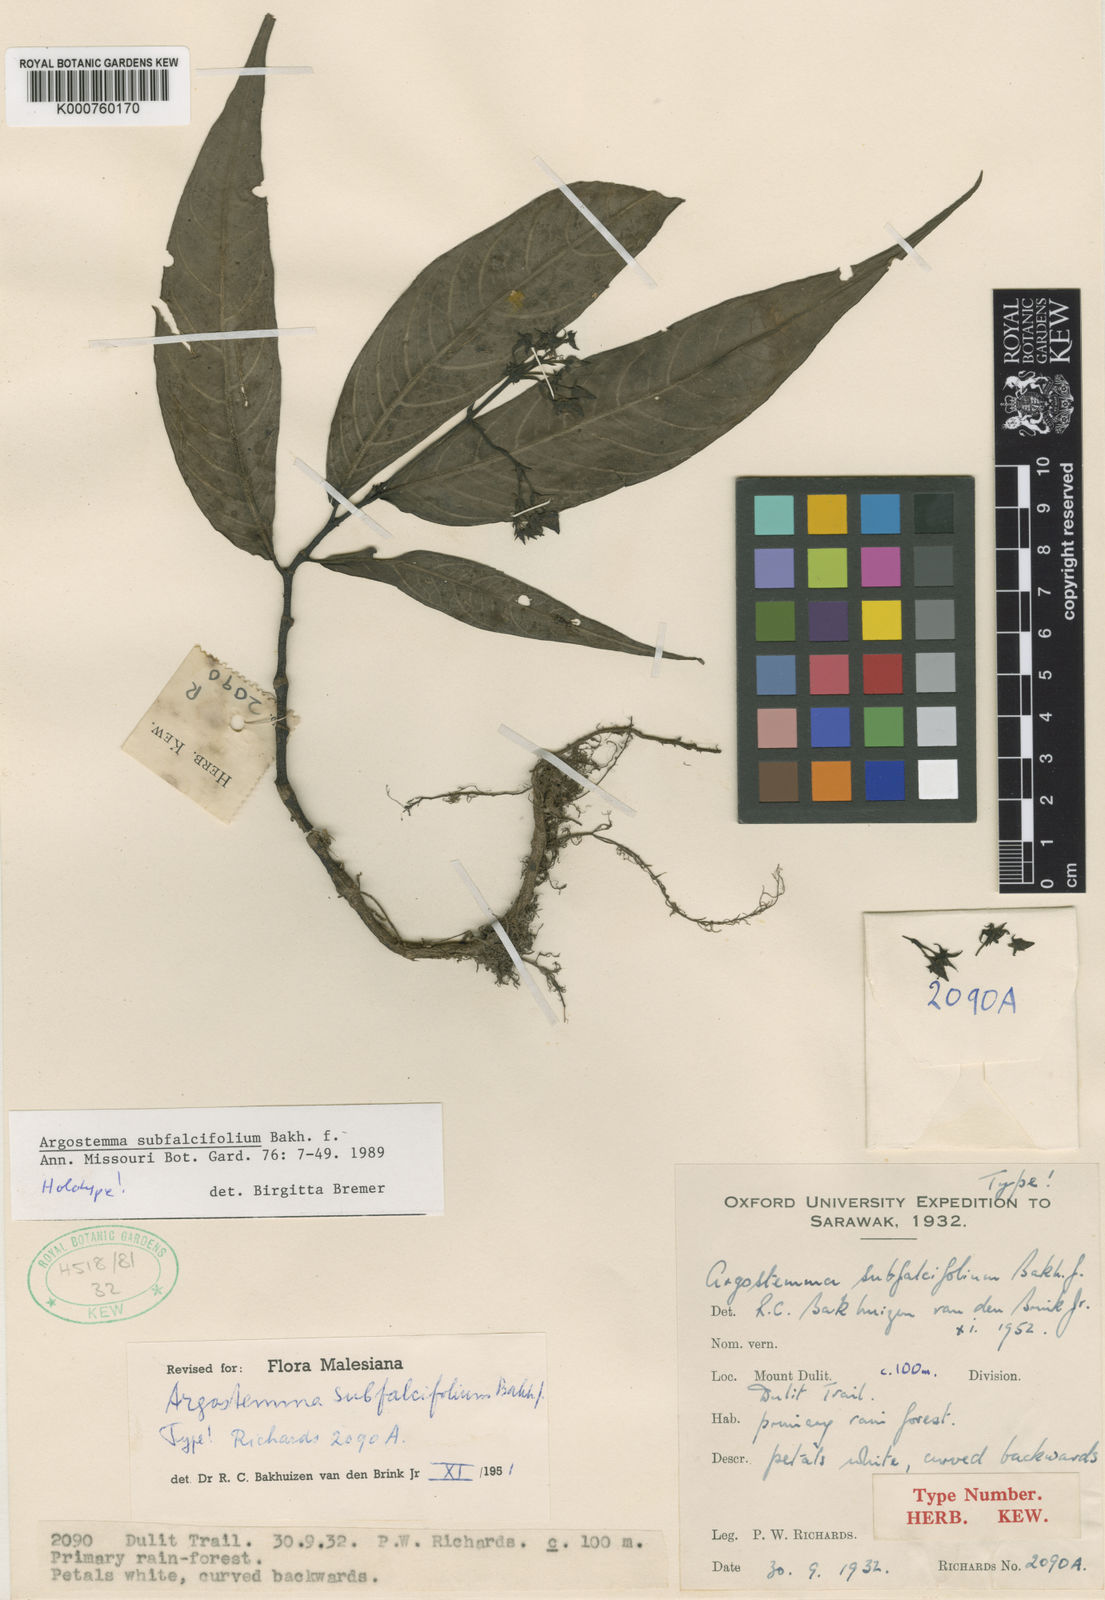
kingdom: Plantae
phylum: Tracheophyta
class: Magnoliopsida
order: Gentianales
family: Rubiaceae
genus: Argostemma
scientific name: Argostemma subfalcifolium
